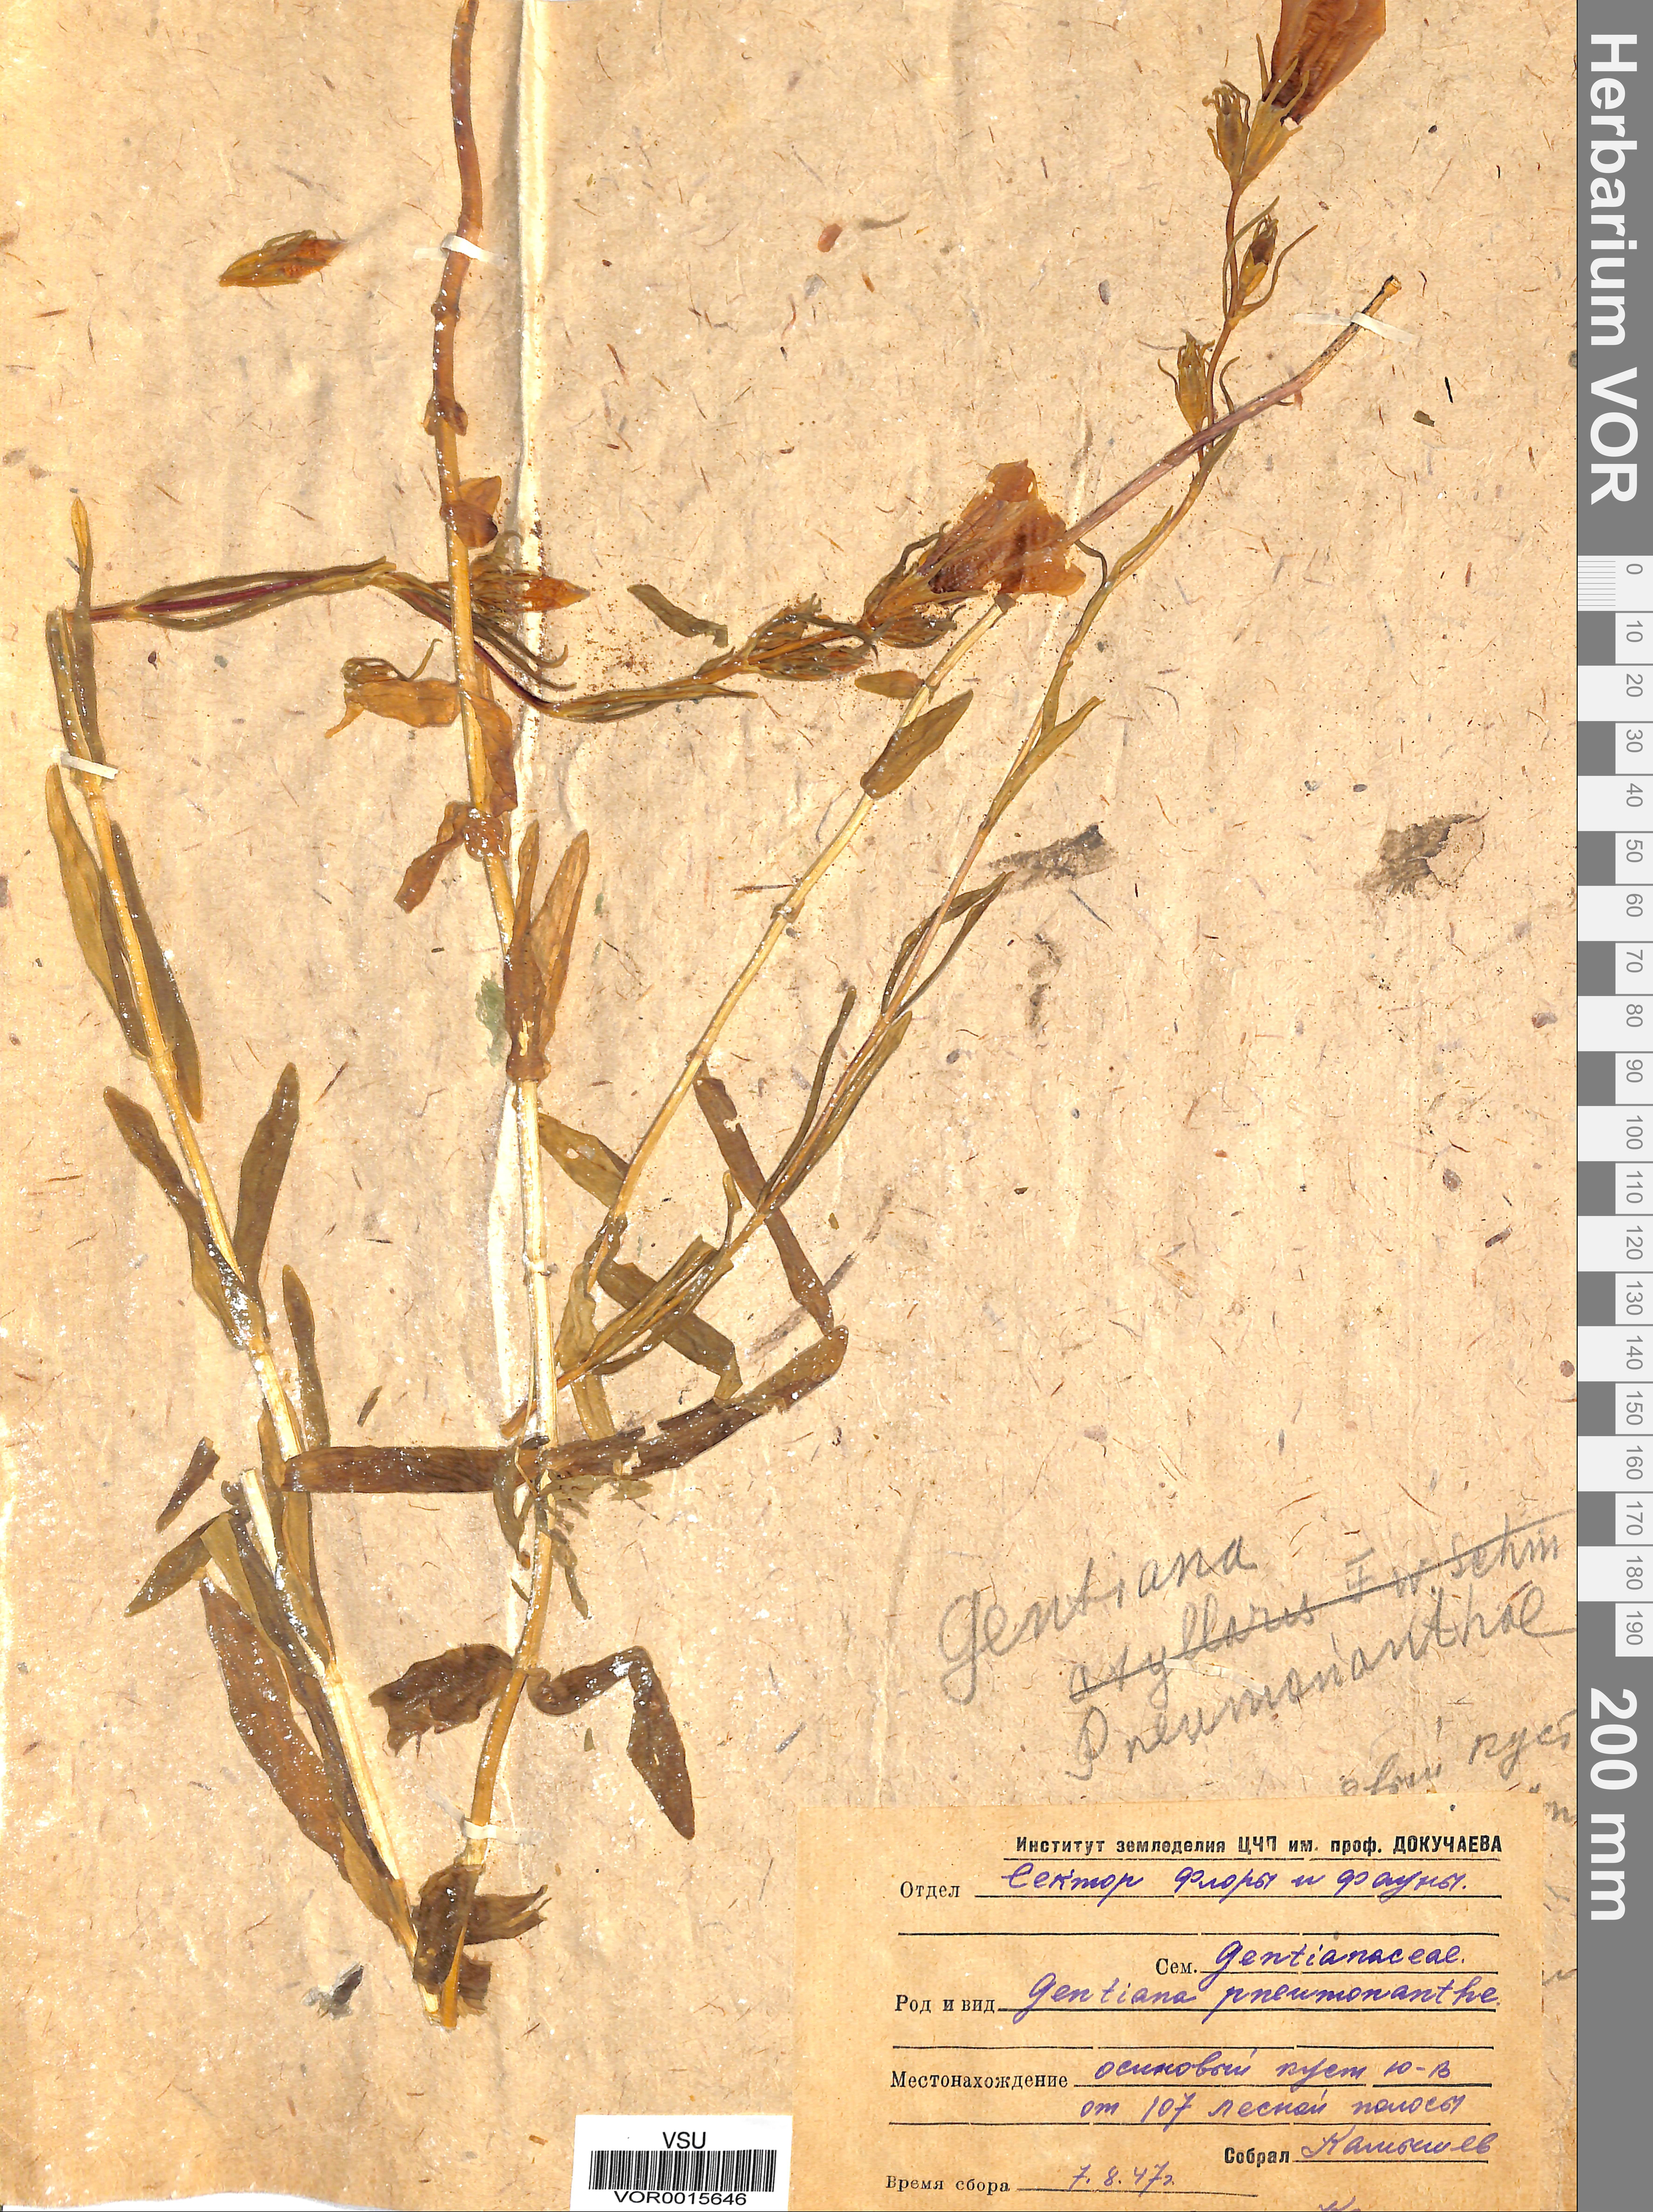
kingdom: Plantae
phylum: Tracheophyta
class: Magnoliopsida
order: Gentianales
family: Gentianaceae
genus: Gentiana
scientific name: Gentiana pneumonanthe
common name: Marsh gentian
